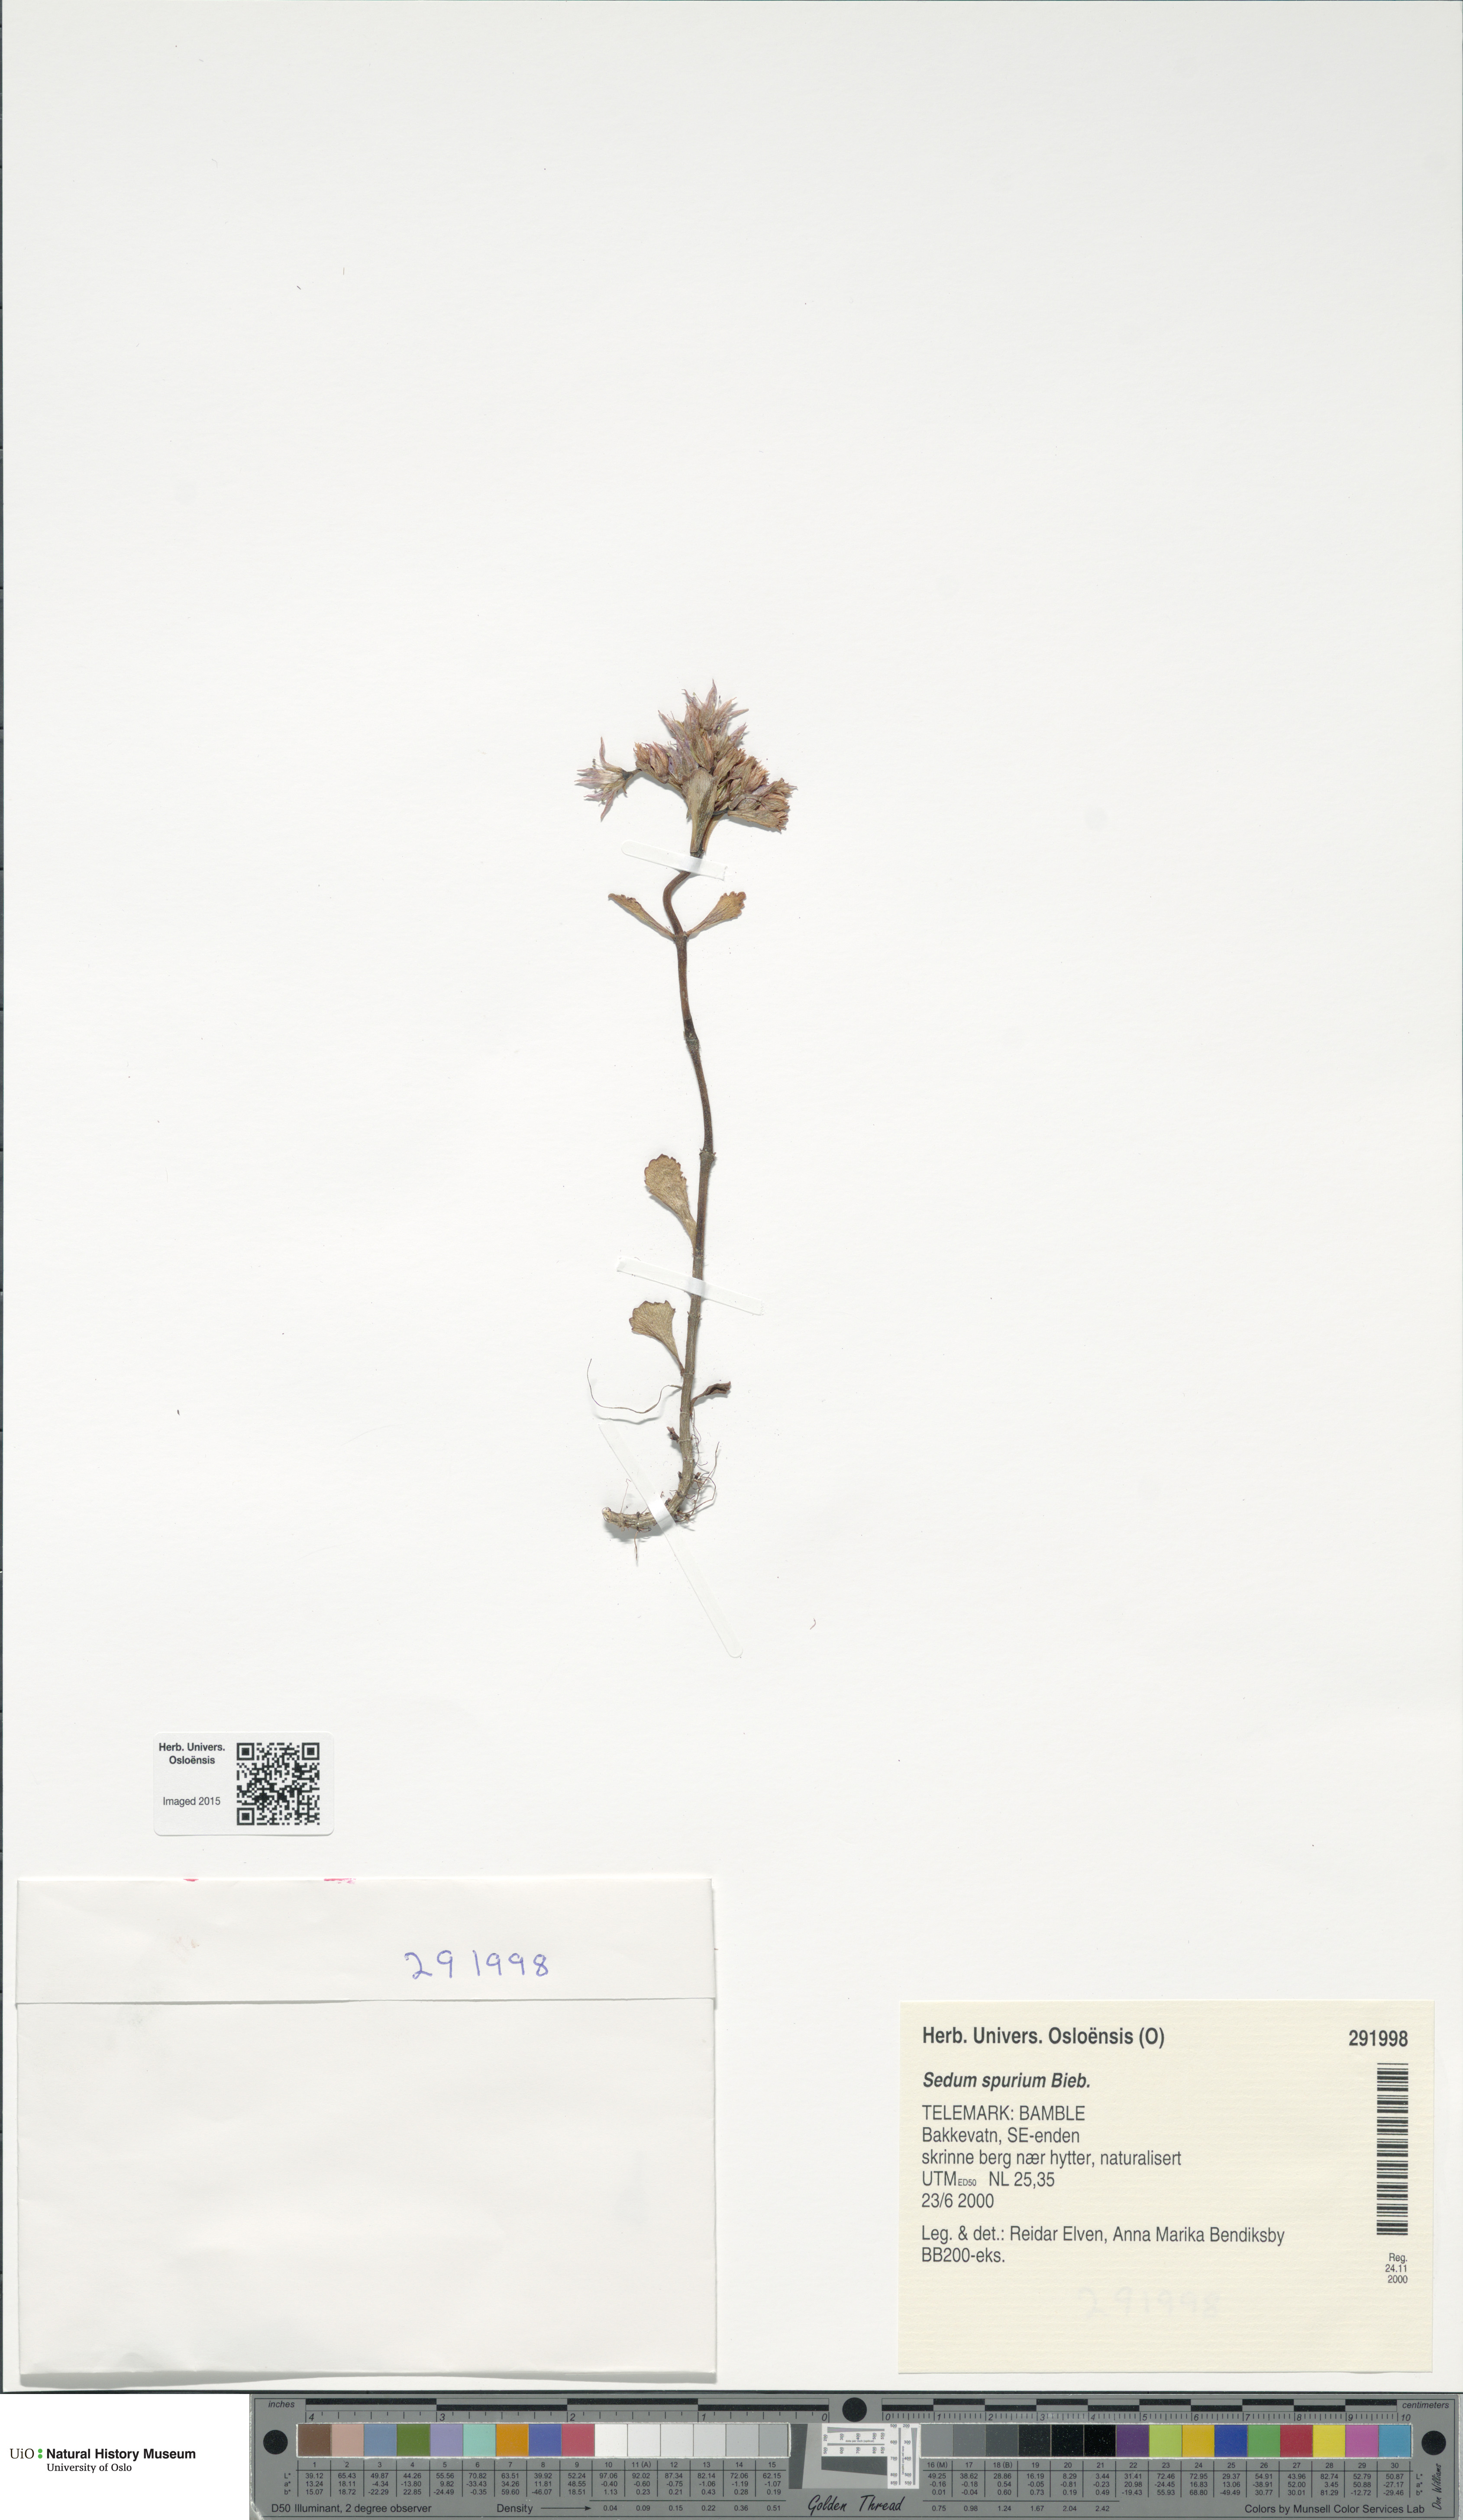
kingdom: Plantae
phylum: Tracheophyta
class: Magnoliopsida
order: Saxifragales
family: Crassulaceae
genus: Phedimus
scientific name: Phedimus spurius
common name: Caucasian stonecrop
